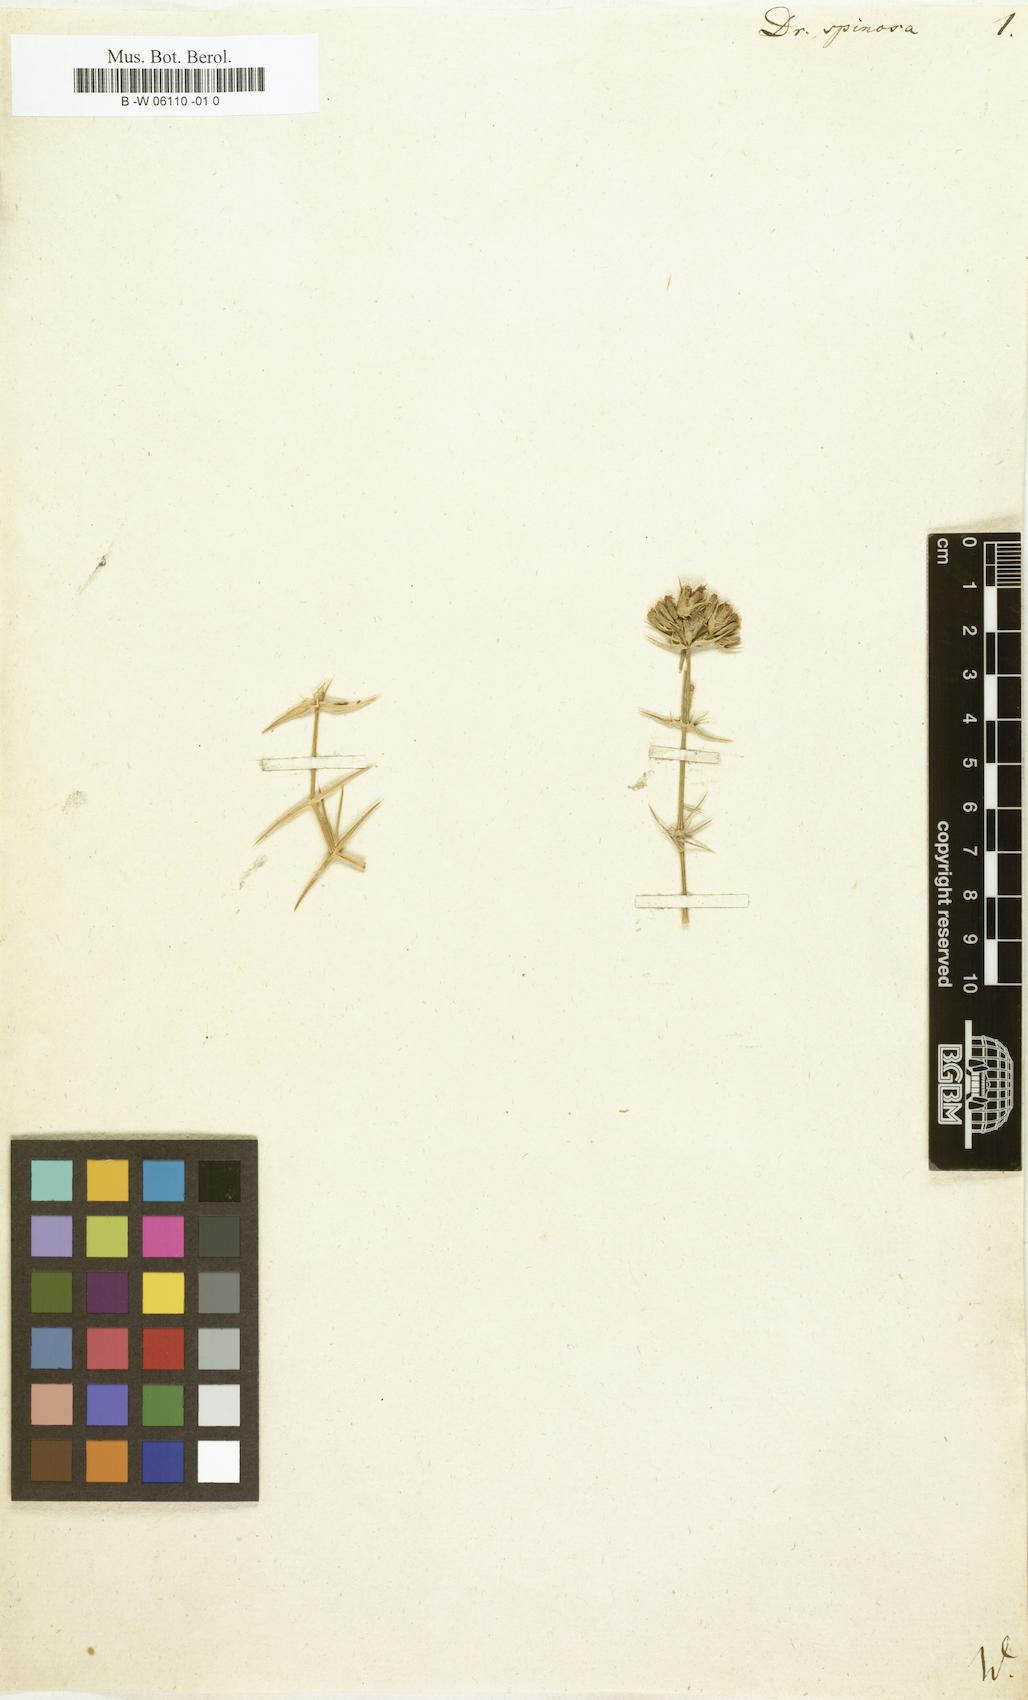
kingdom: Plantae
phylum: Tracheophyta
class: Magnoliopsida
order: Caryophyllales
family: Caryophyllaceae
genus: Drypis
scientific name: Drypis spinosa
